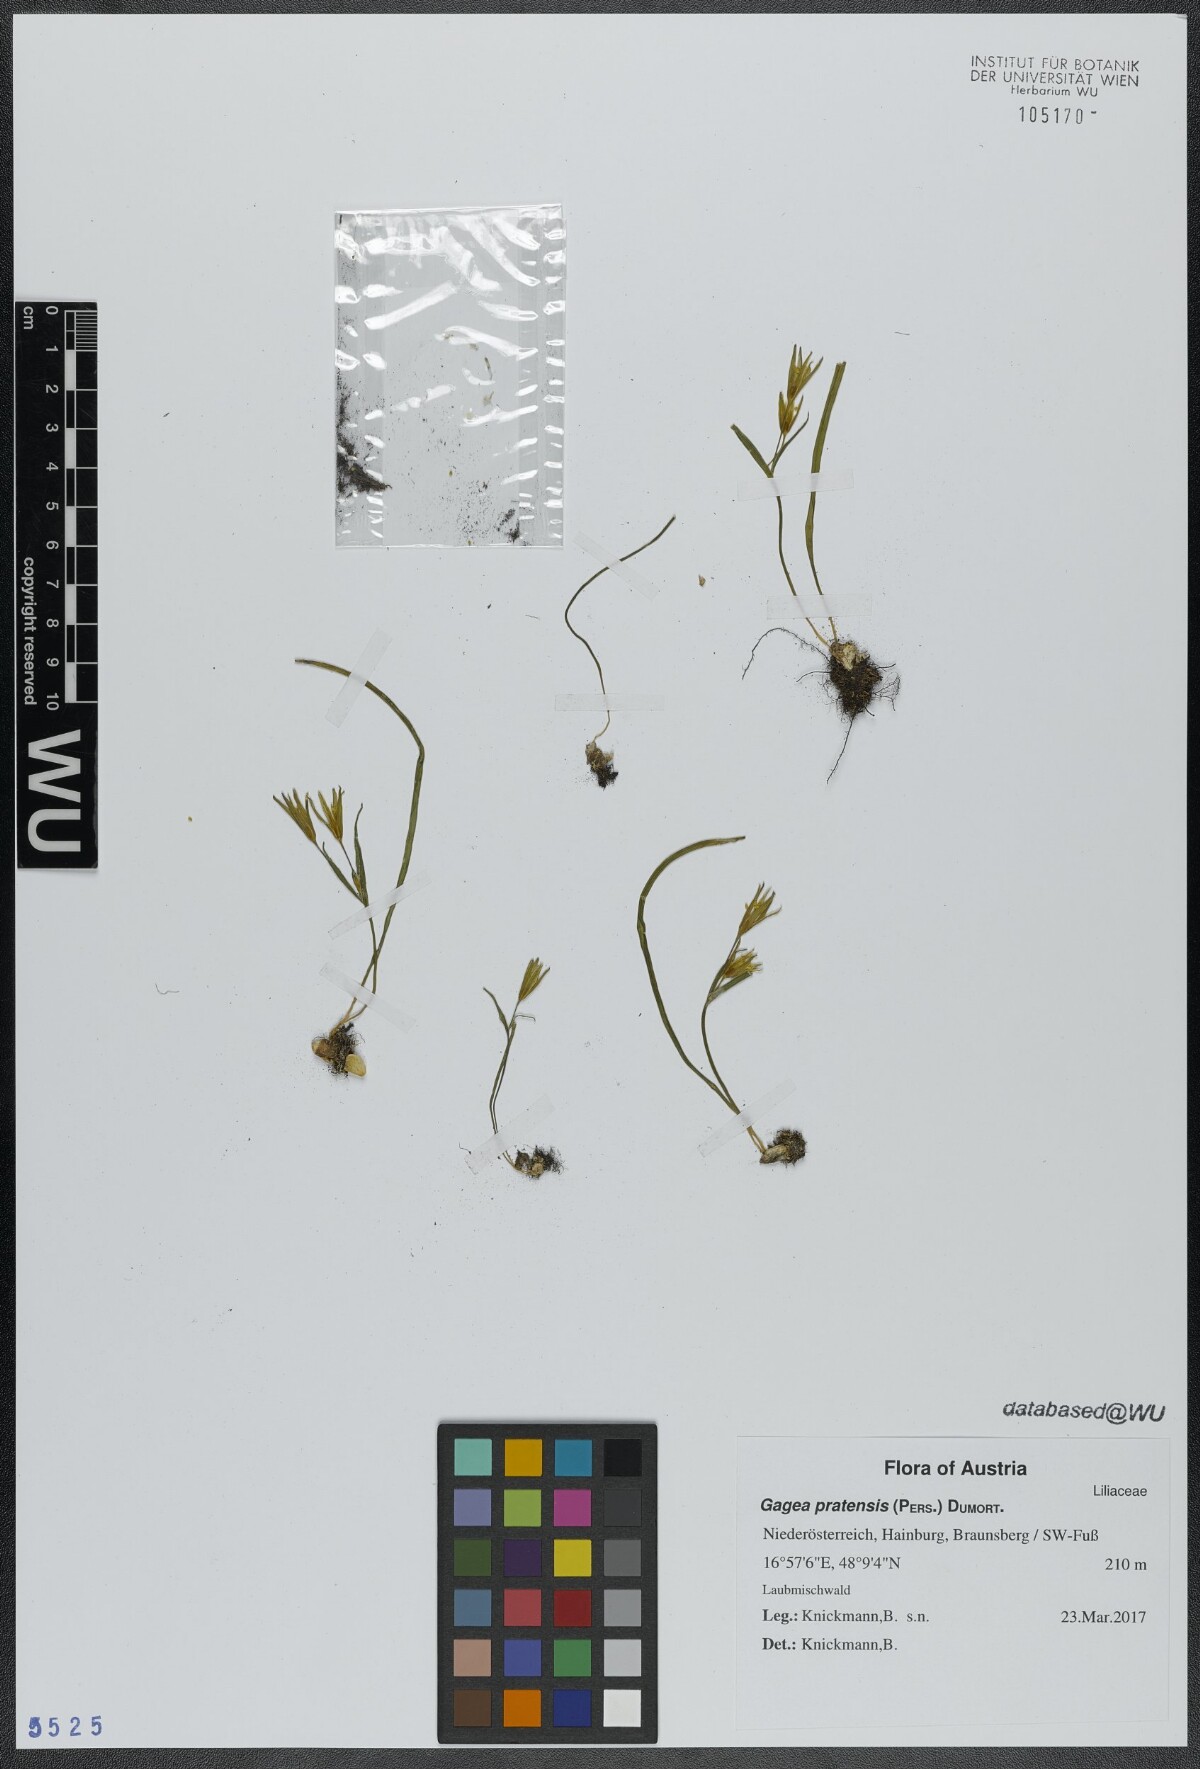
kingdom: Plantae
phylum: Tracheophyta
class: Liliopsida
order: Liliales
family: Liliaceae
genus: Gagea
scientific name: Gagea pratensis
